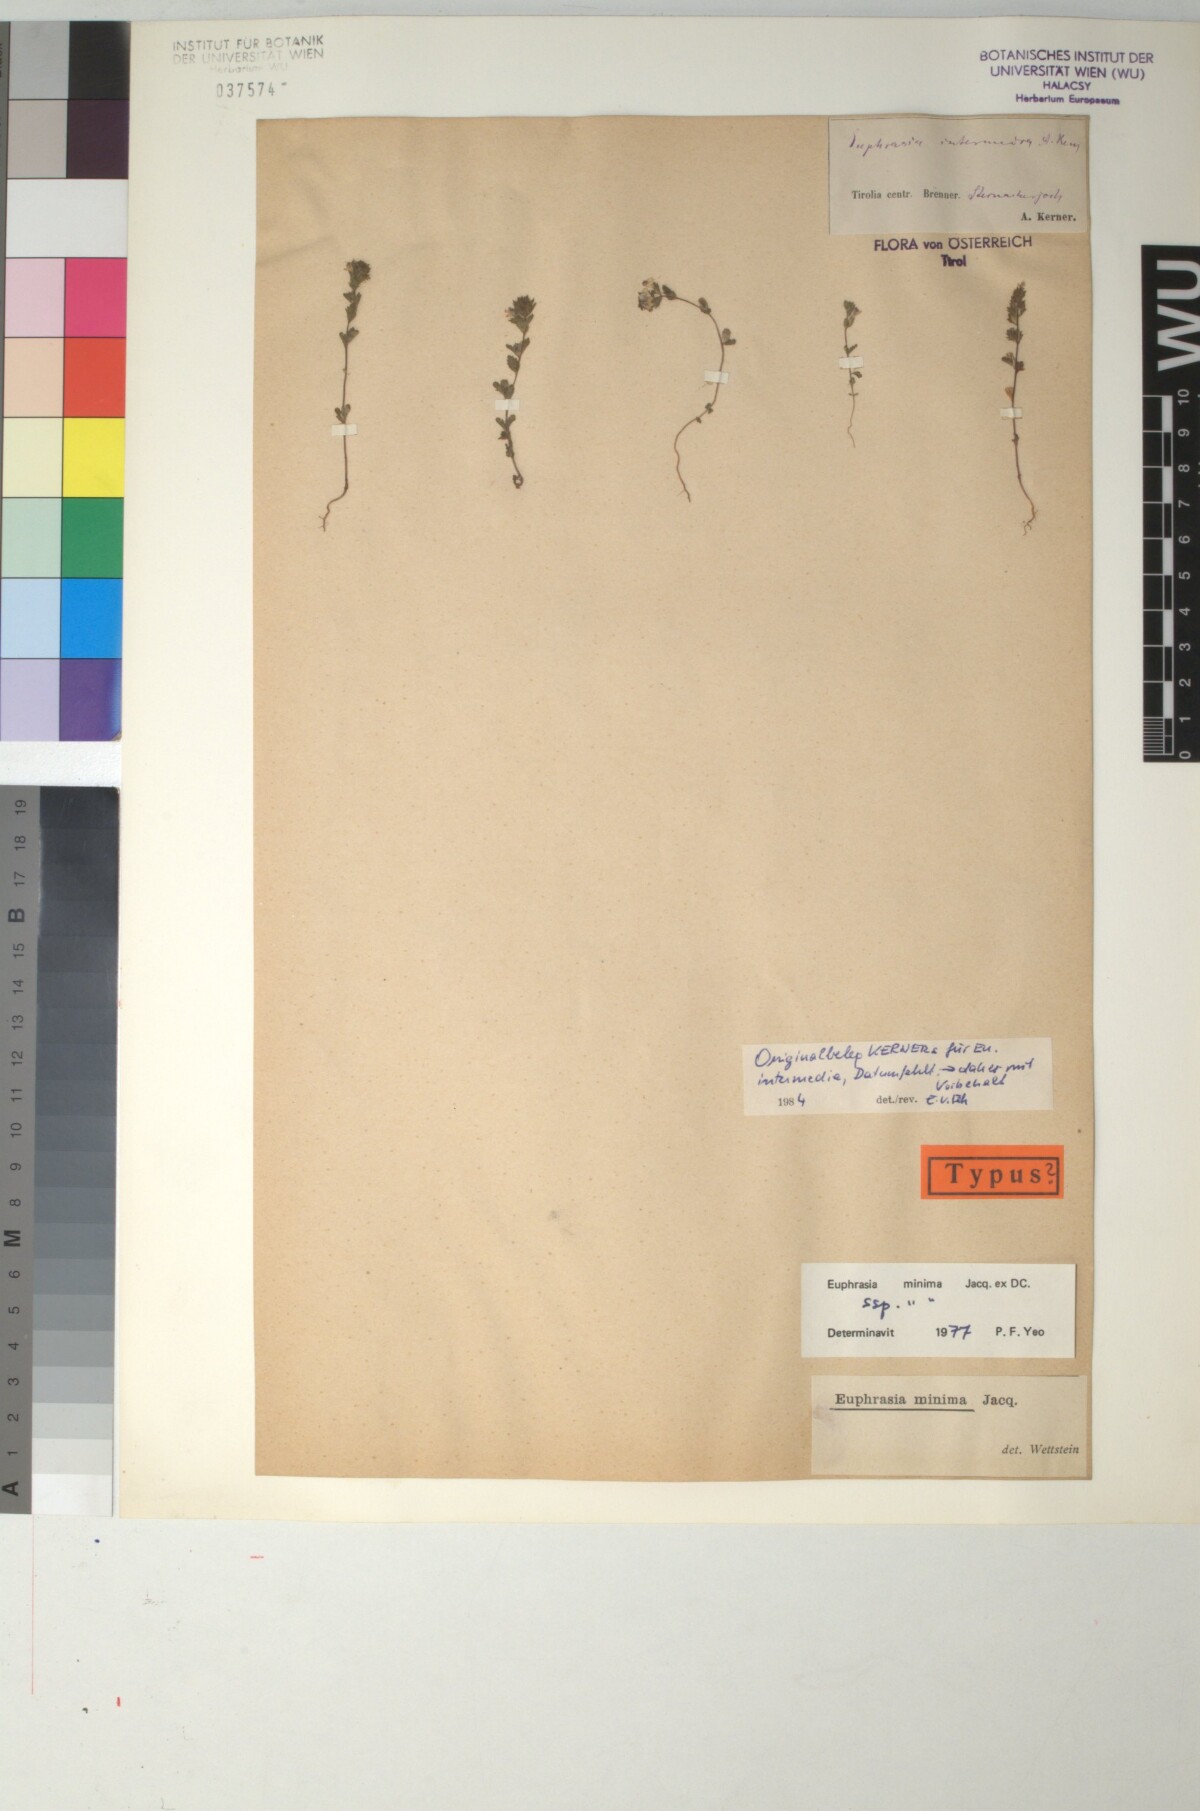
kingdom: Plantae
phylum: Tracheophyta
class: Magnoliopsida
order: Lamiales
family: Orobanchaceae
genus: Euphrasia
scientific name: Euphrasia minima
